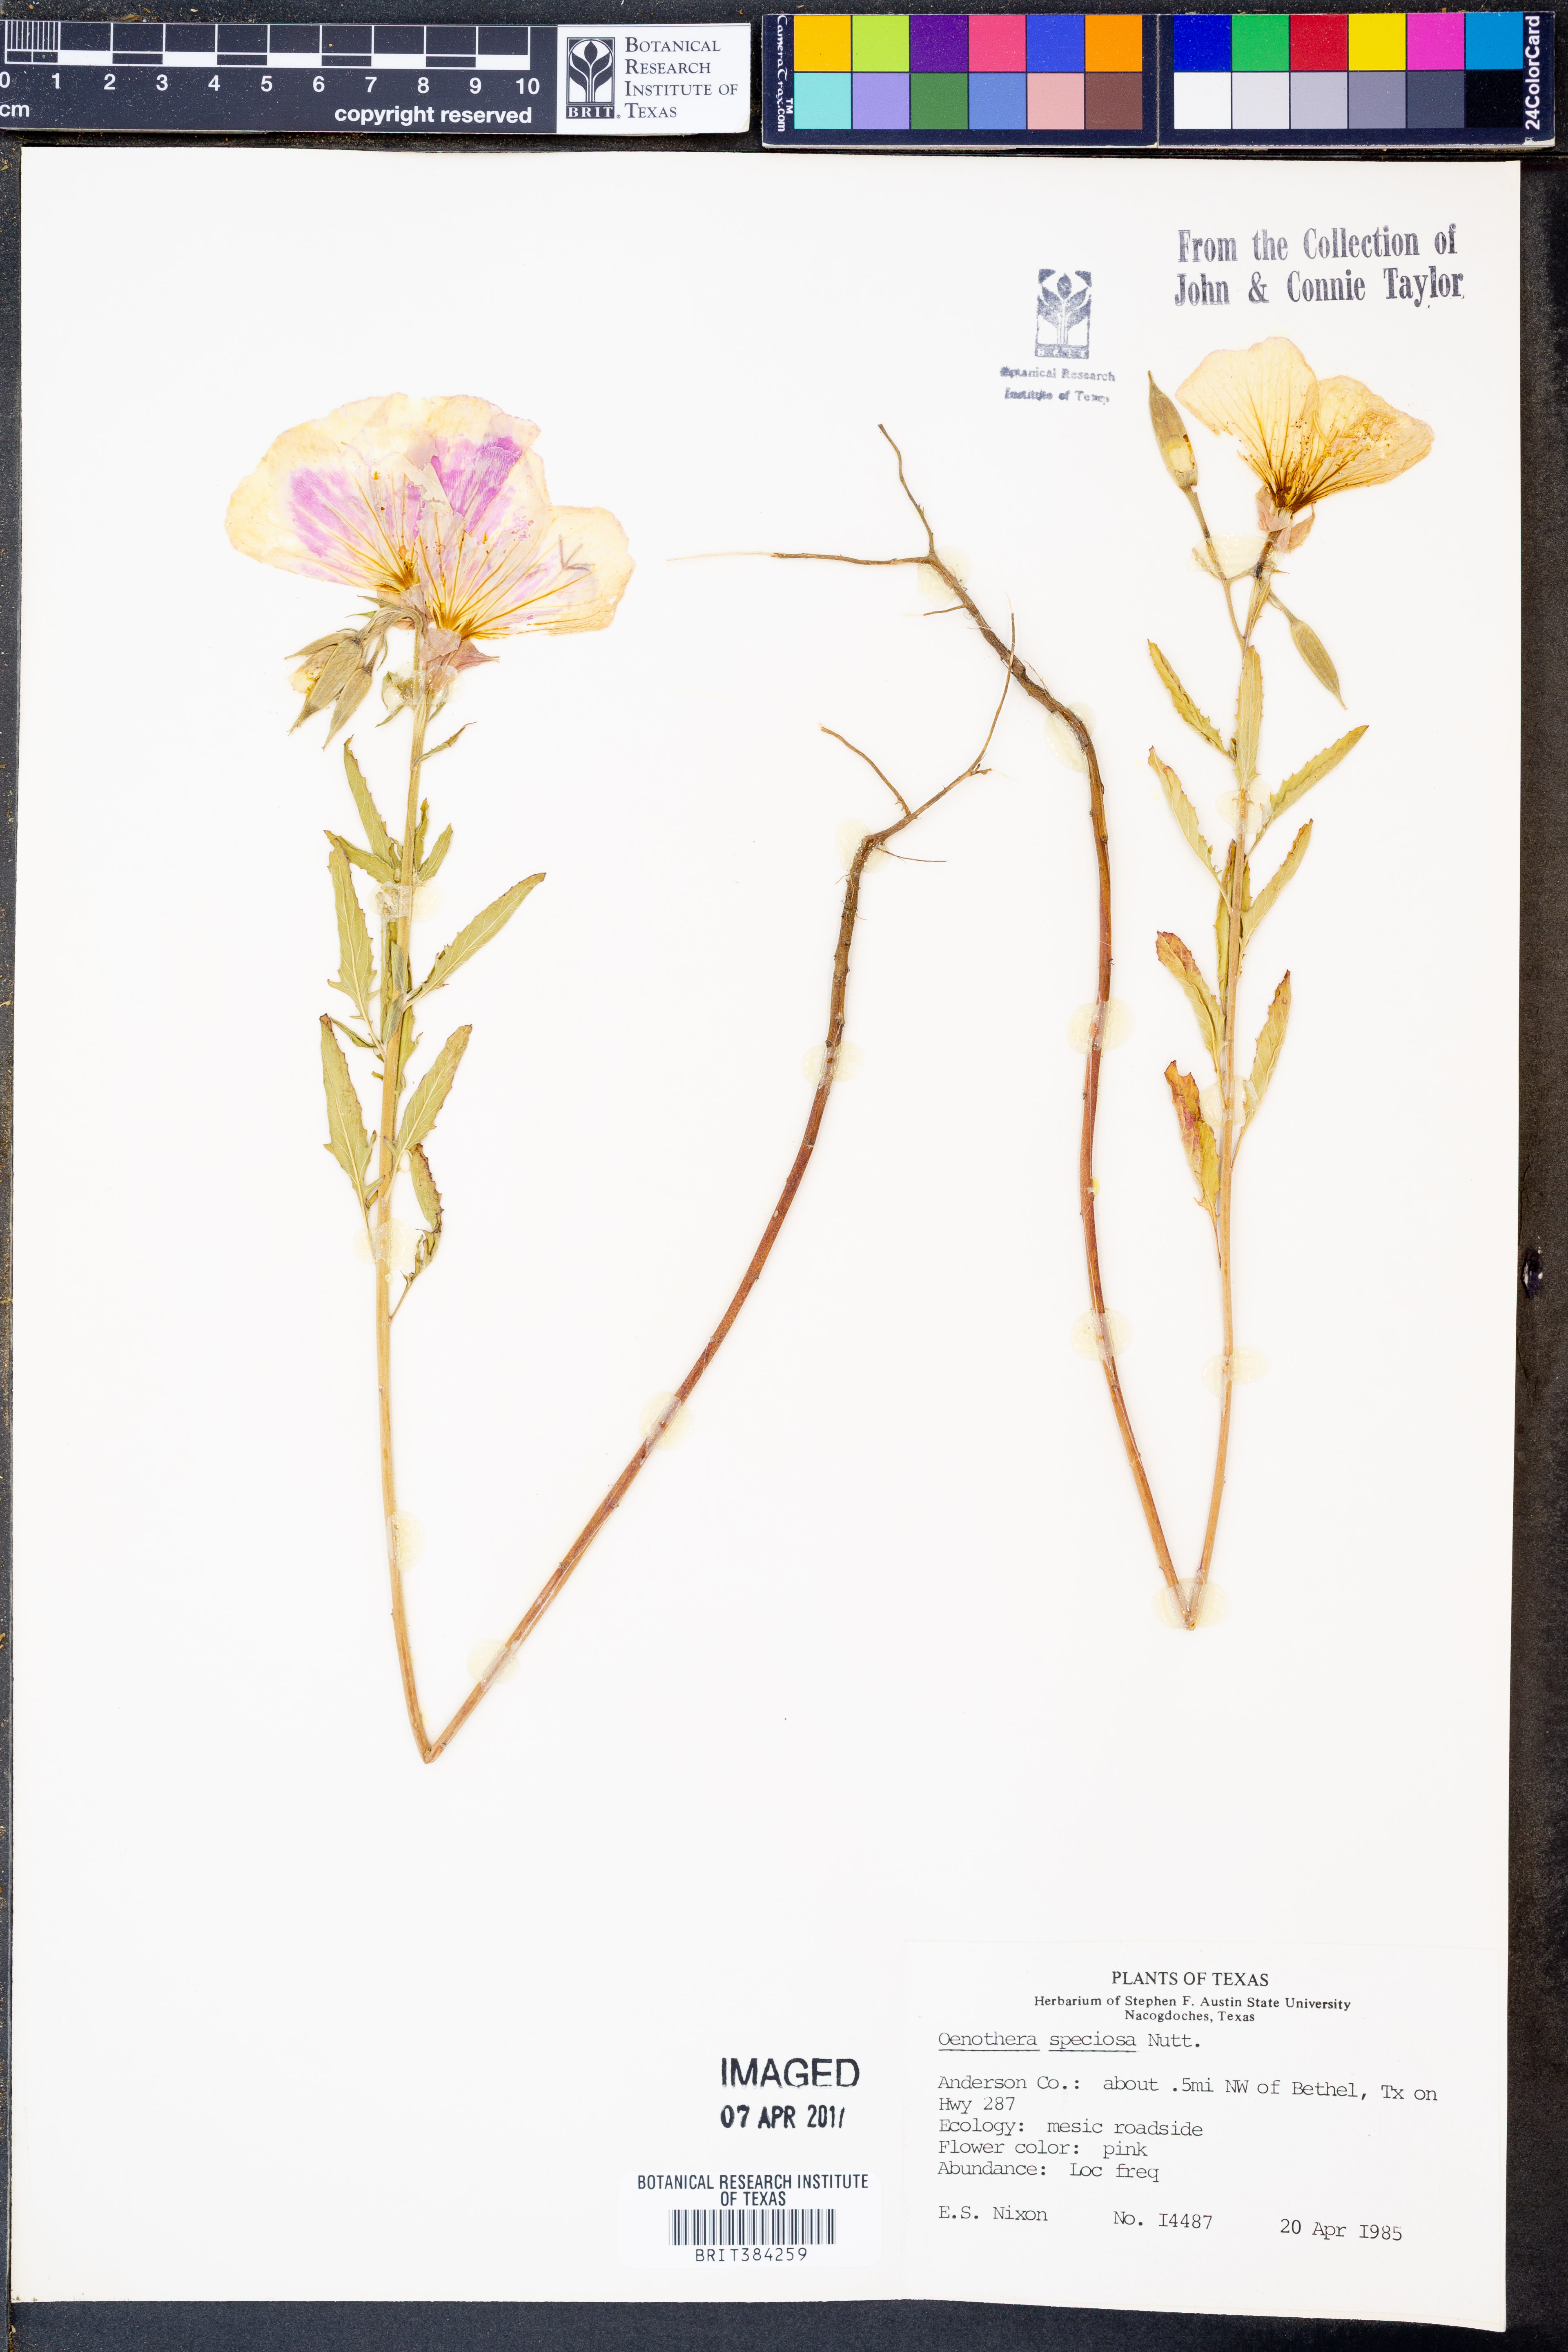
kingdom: Plantae
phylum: Tracheophyta
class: Magnoliopsida
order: Myrtales
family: Onagraceae
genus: Oenothera
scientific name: Oenothera speciosa
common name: White evening-primrose
